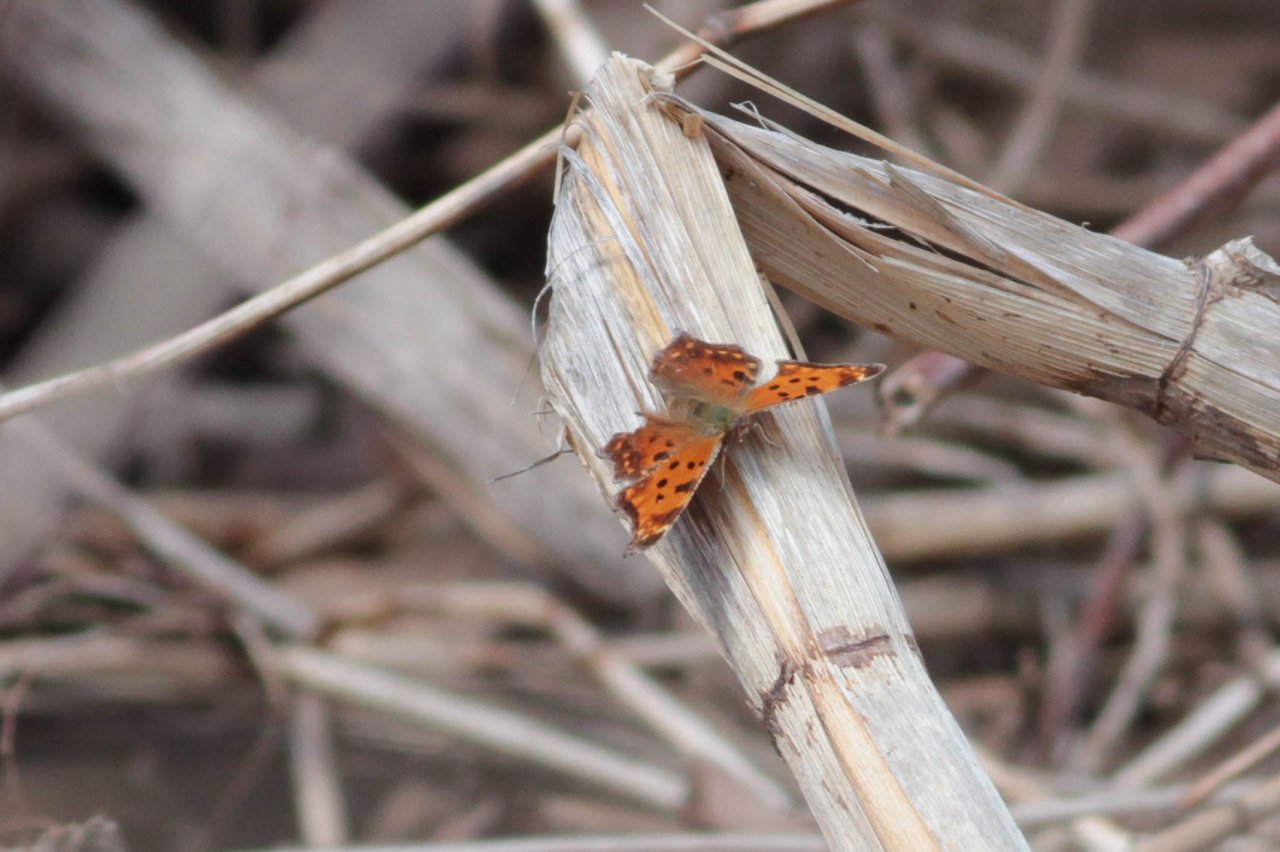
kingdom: Animalia
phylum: Arthropoda
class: Insecta
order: Lepidoptera
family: Nymphalidae
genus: Polygonia
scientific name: Polygonia comma
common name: Eastern Comma
